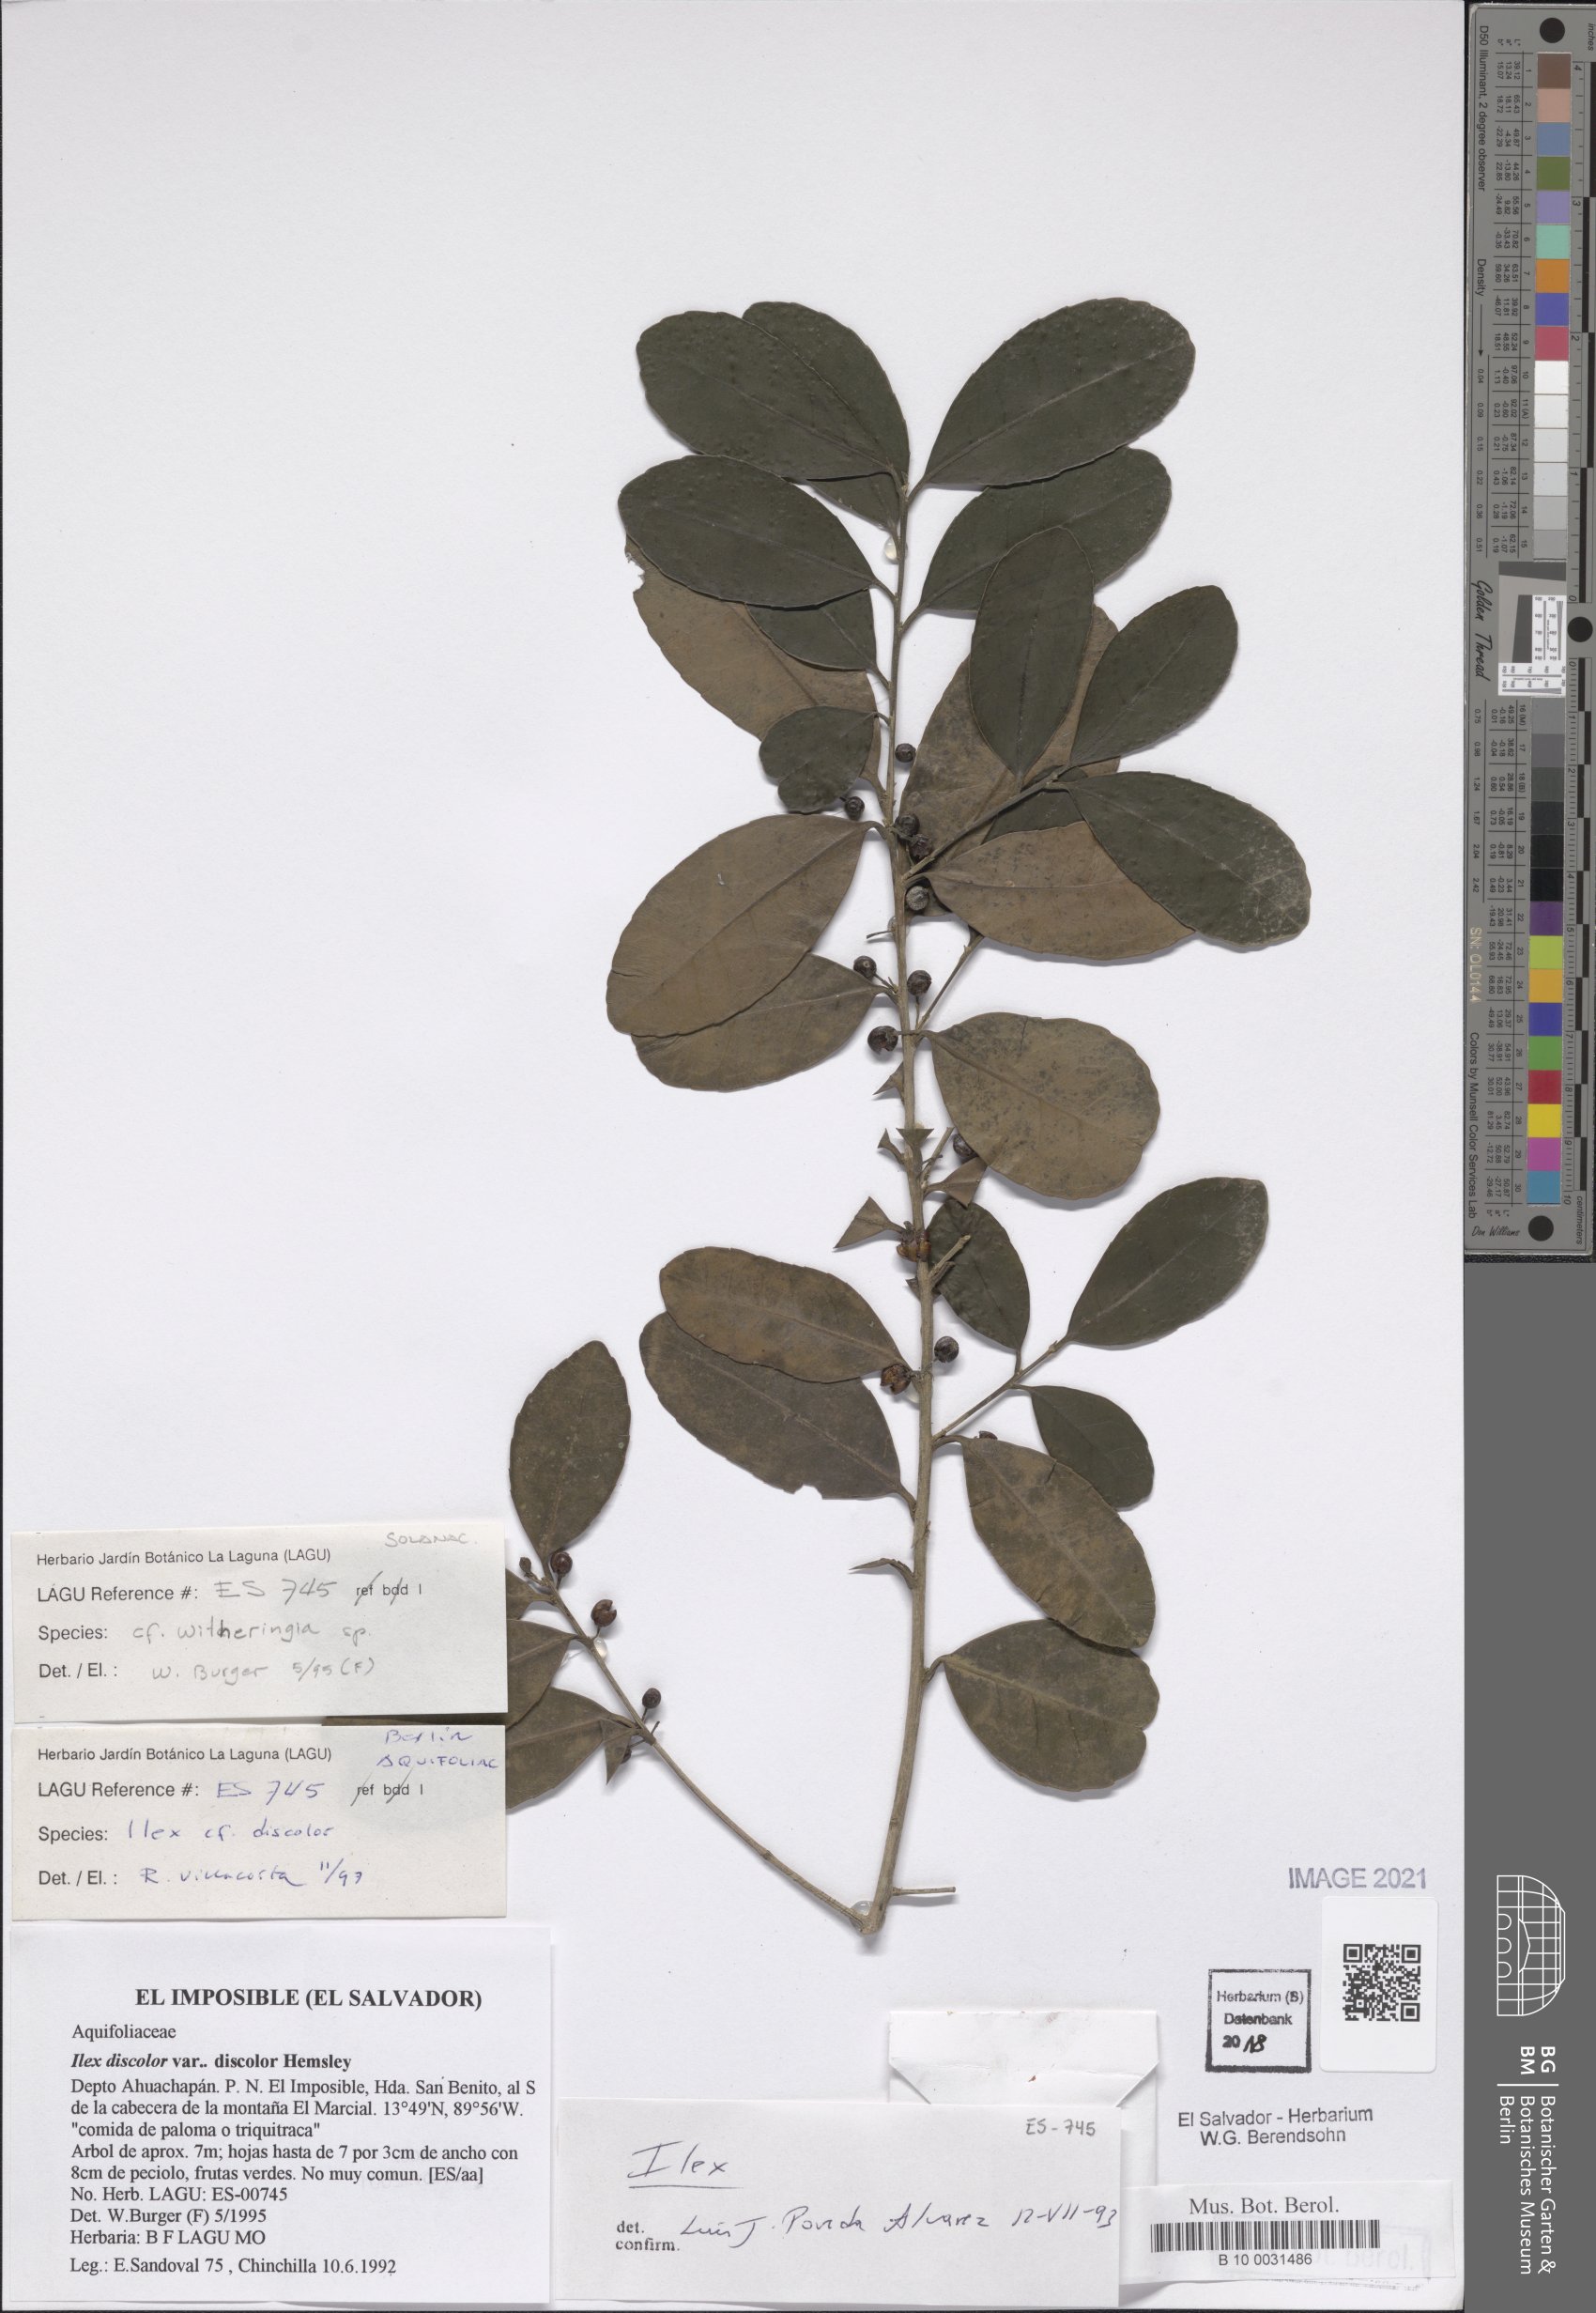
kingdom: Plantae
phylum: Tracheophyta
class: Magnoliopsida
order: Aquifoliales
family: Aquifoliaceae
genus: Ilex
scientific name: Ilex discolor
